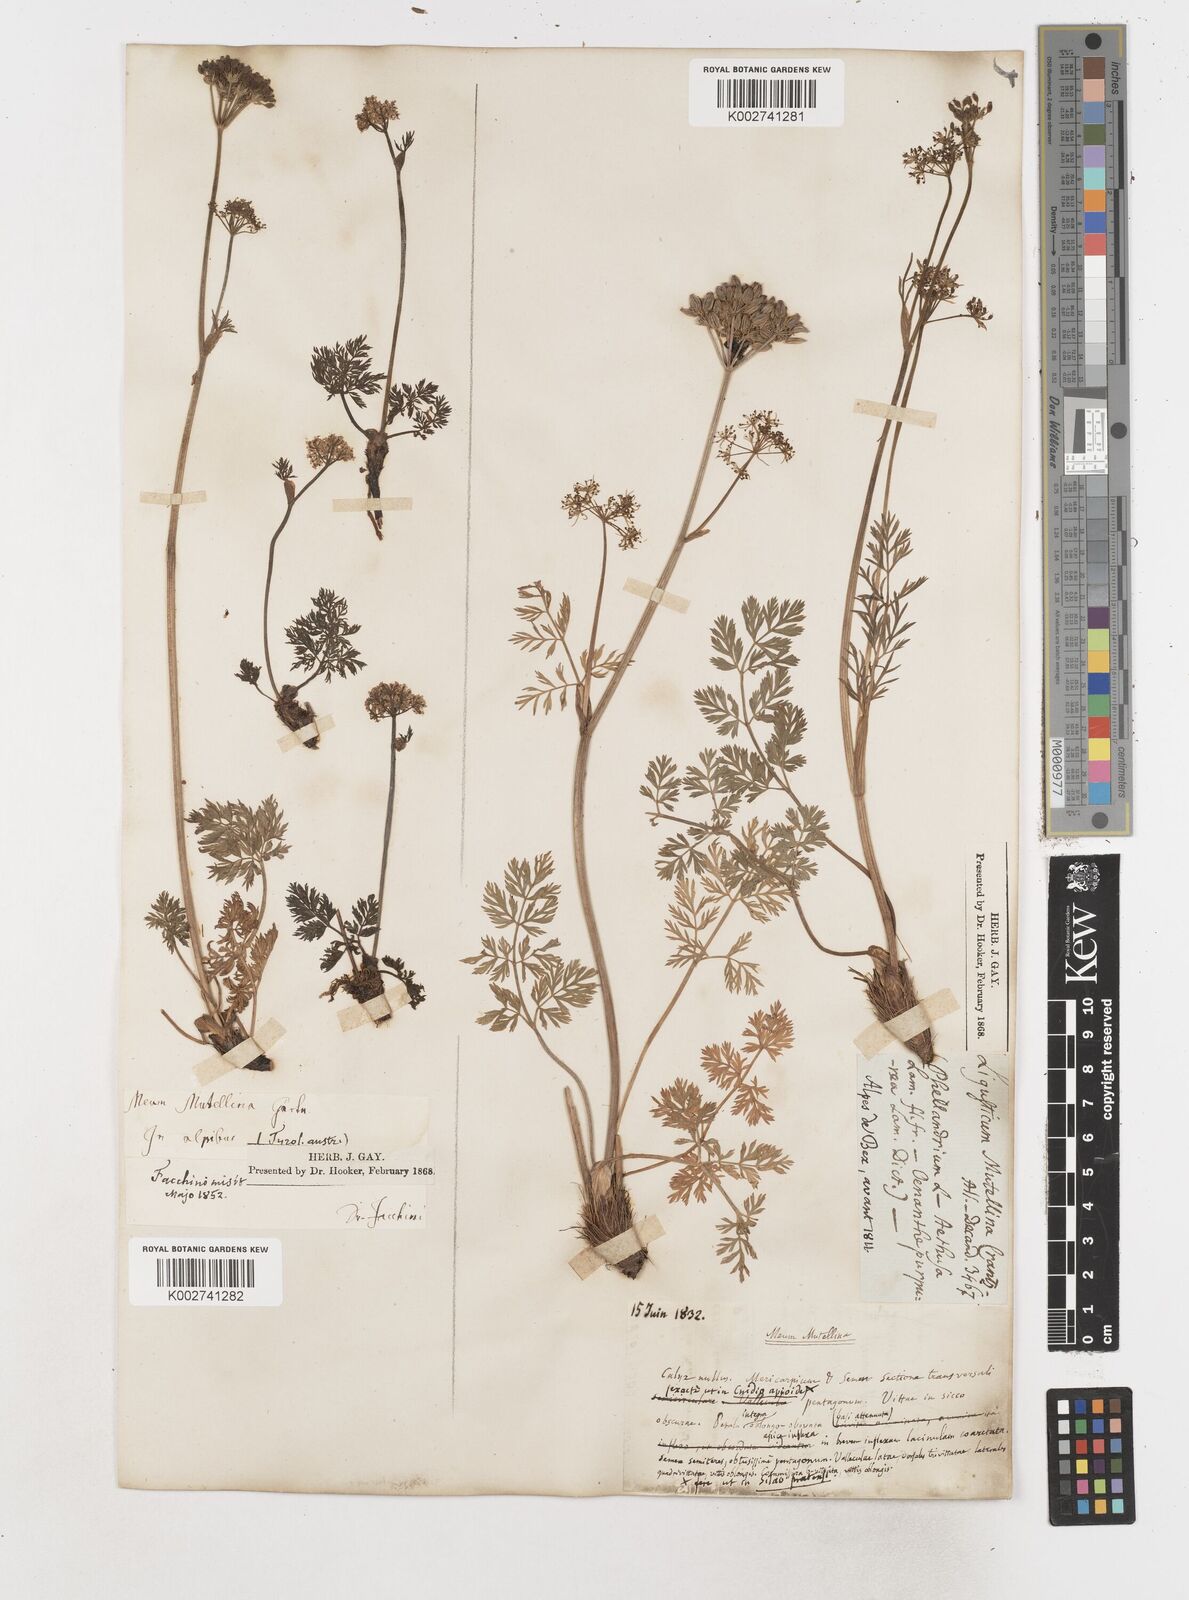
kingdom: Plantae
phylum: Tracheophyta
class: Magnoliopsida
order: Apiales
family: Apiaceae
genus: Mutellina
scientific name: Mutellina adonidifolia
